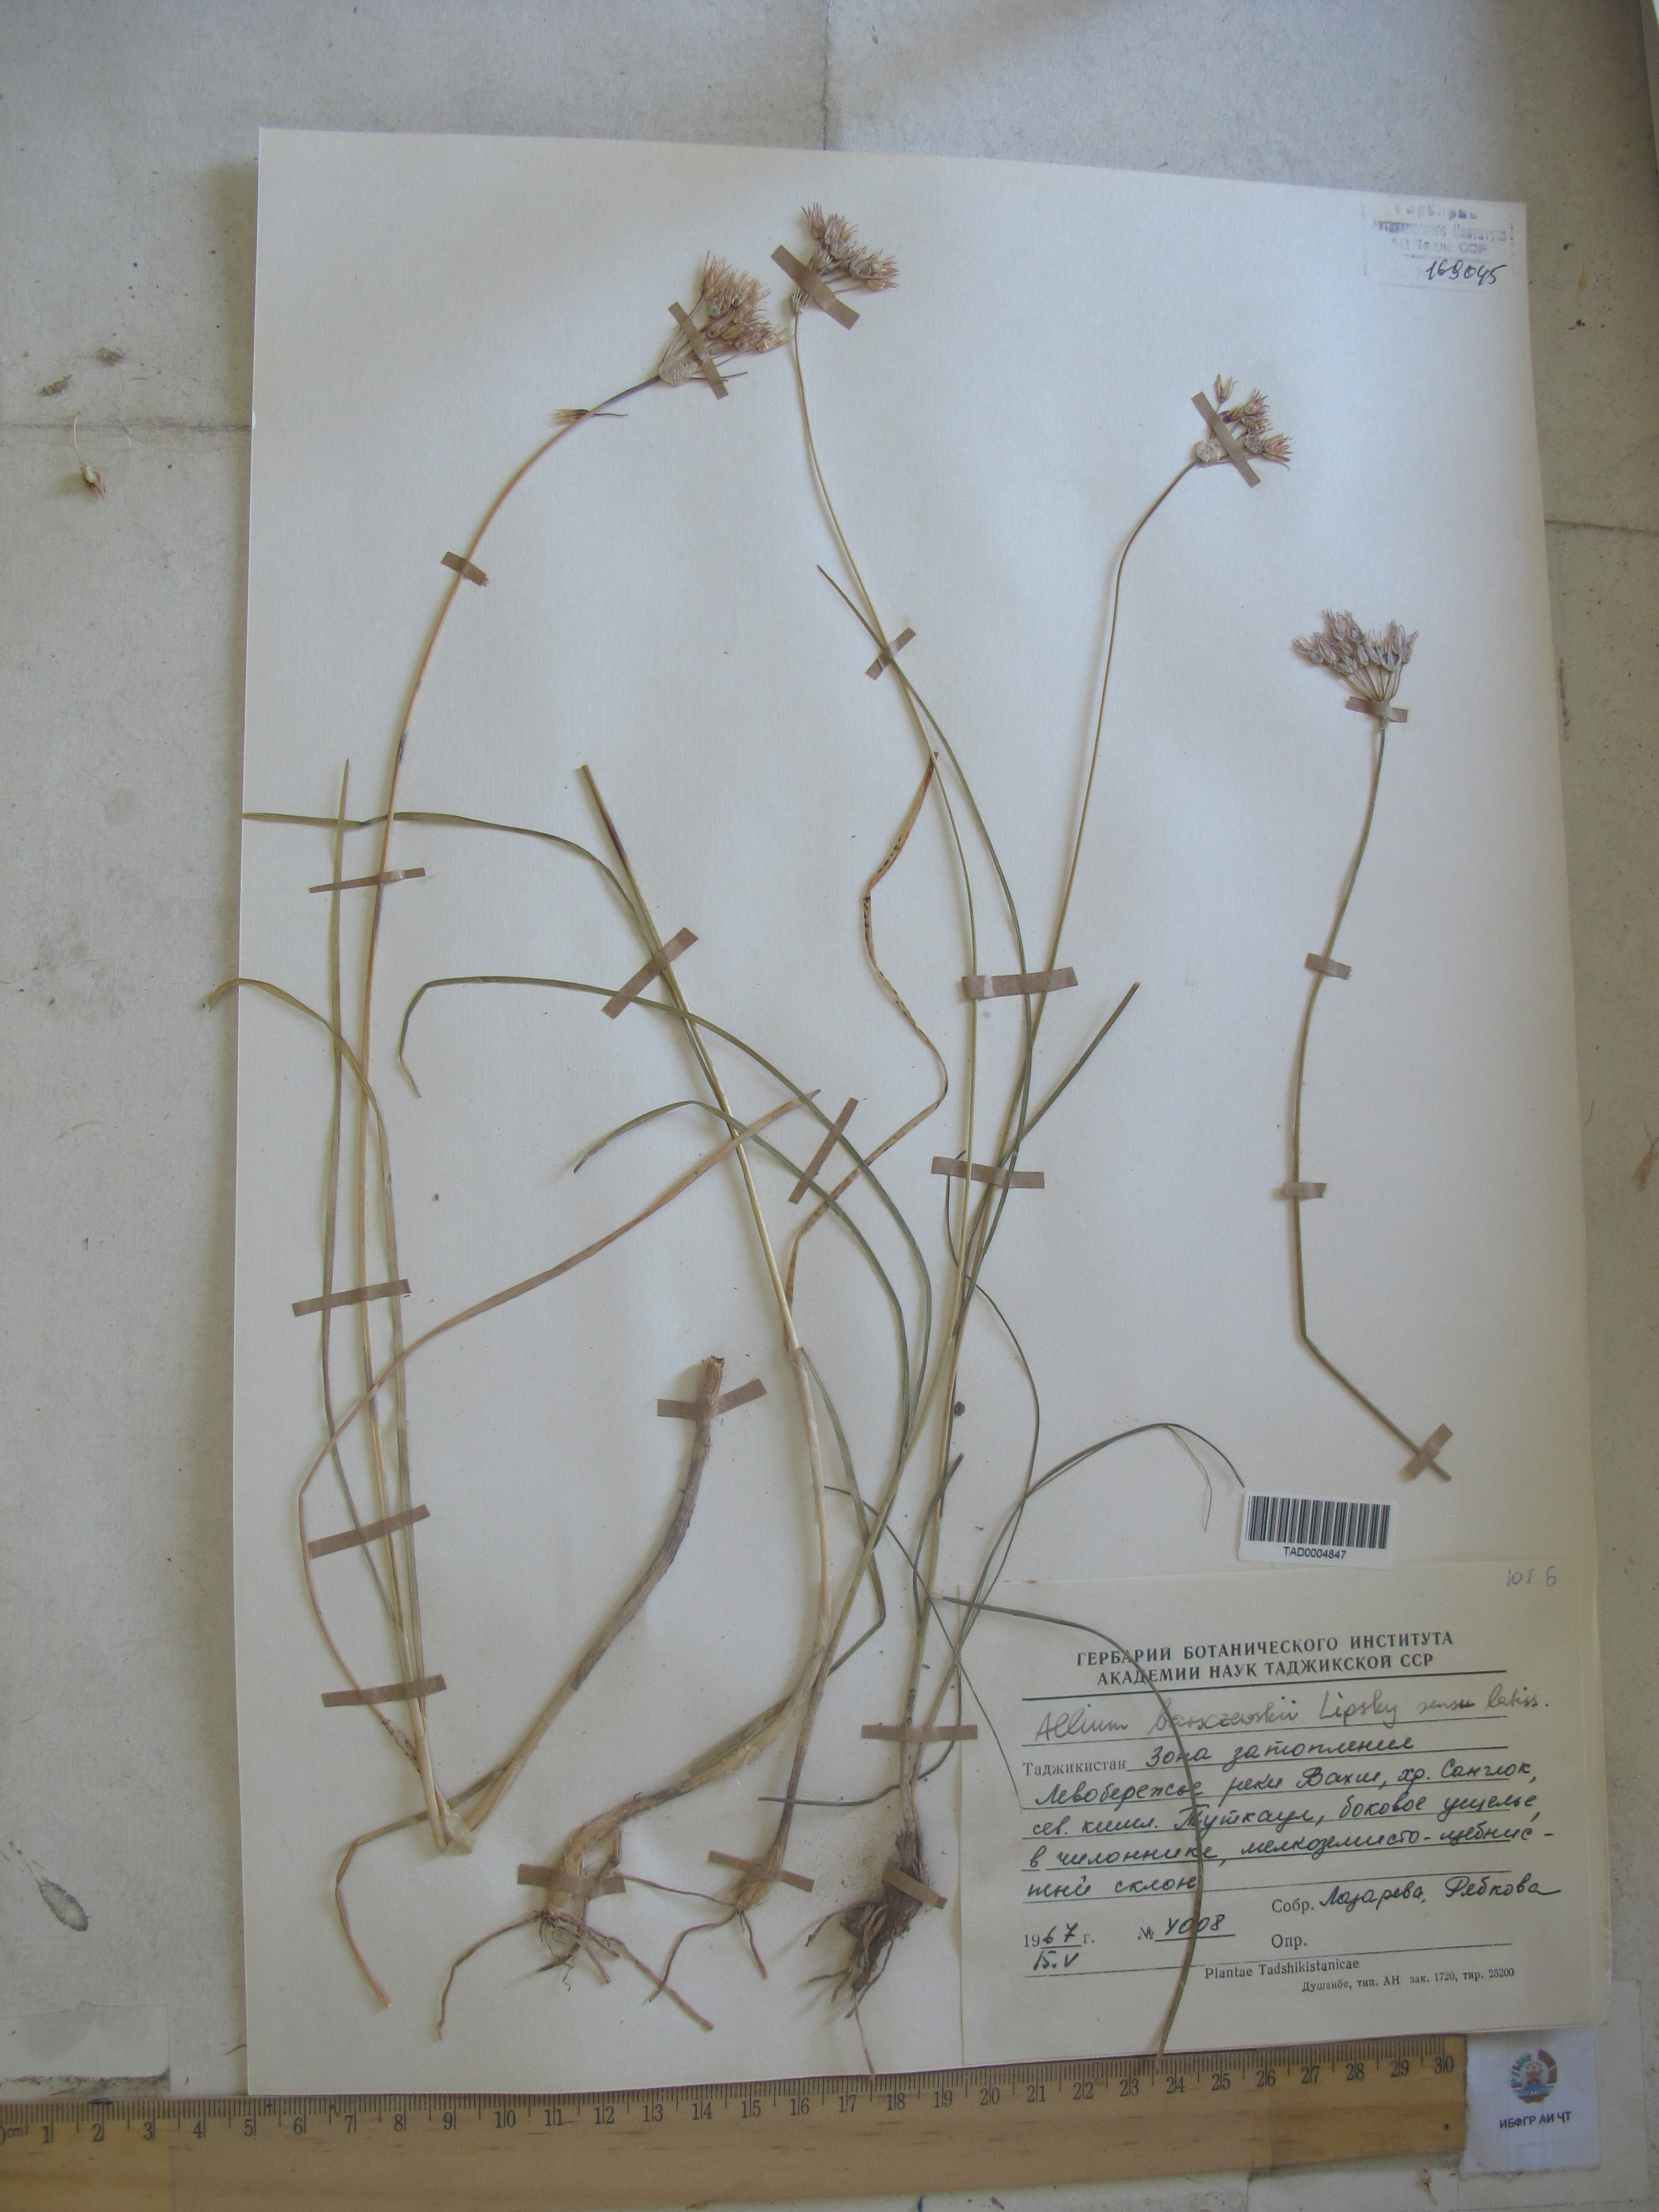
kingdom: Plantae
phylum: Tracheophyta
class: Liliopsida
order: Asparagales
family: Amaryllidaceae
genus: Allium
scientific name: Allium barsczewskii
